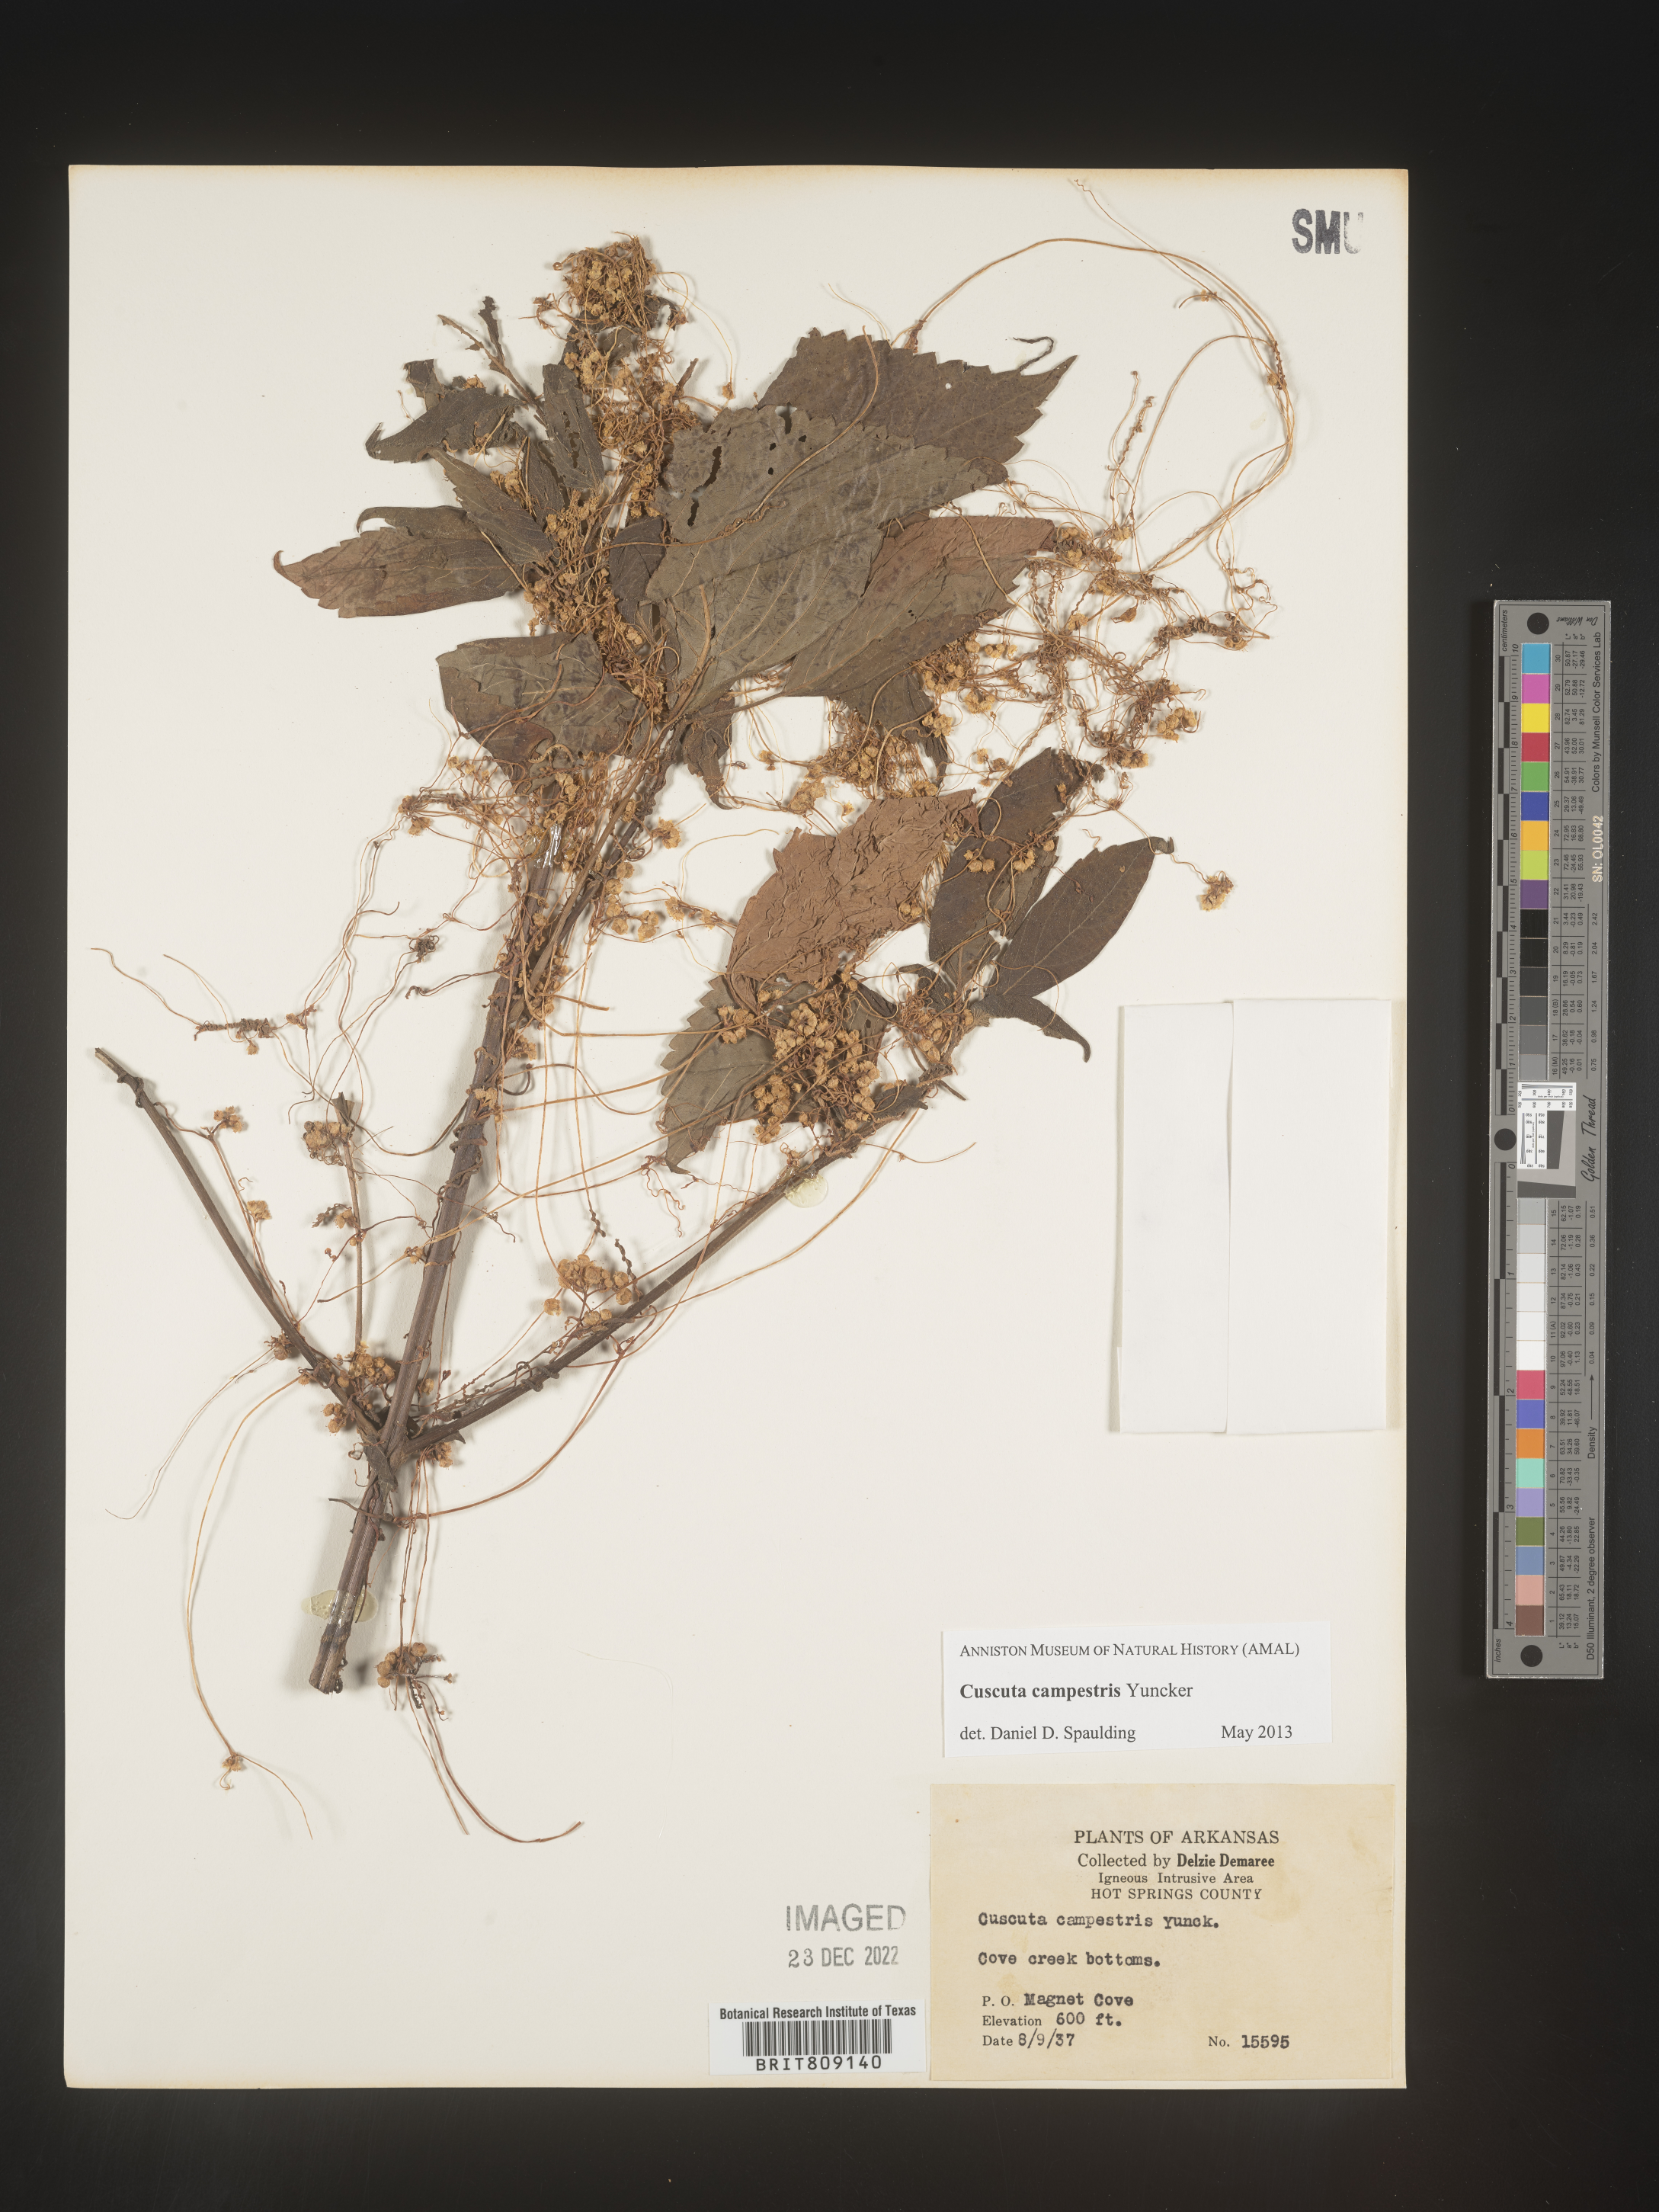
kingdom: Plantae
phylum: Tracheophyta
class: Magnoliopsida
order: Solanales
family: Convolvulaceae
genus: Cuscuta
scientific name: Cuscuta campestris
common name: Yellow dodder
